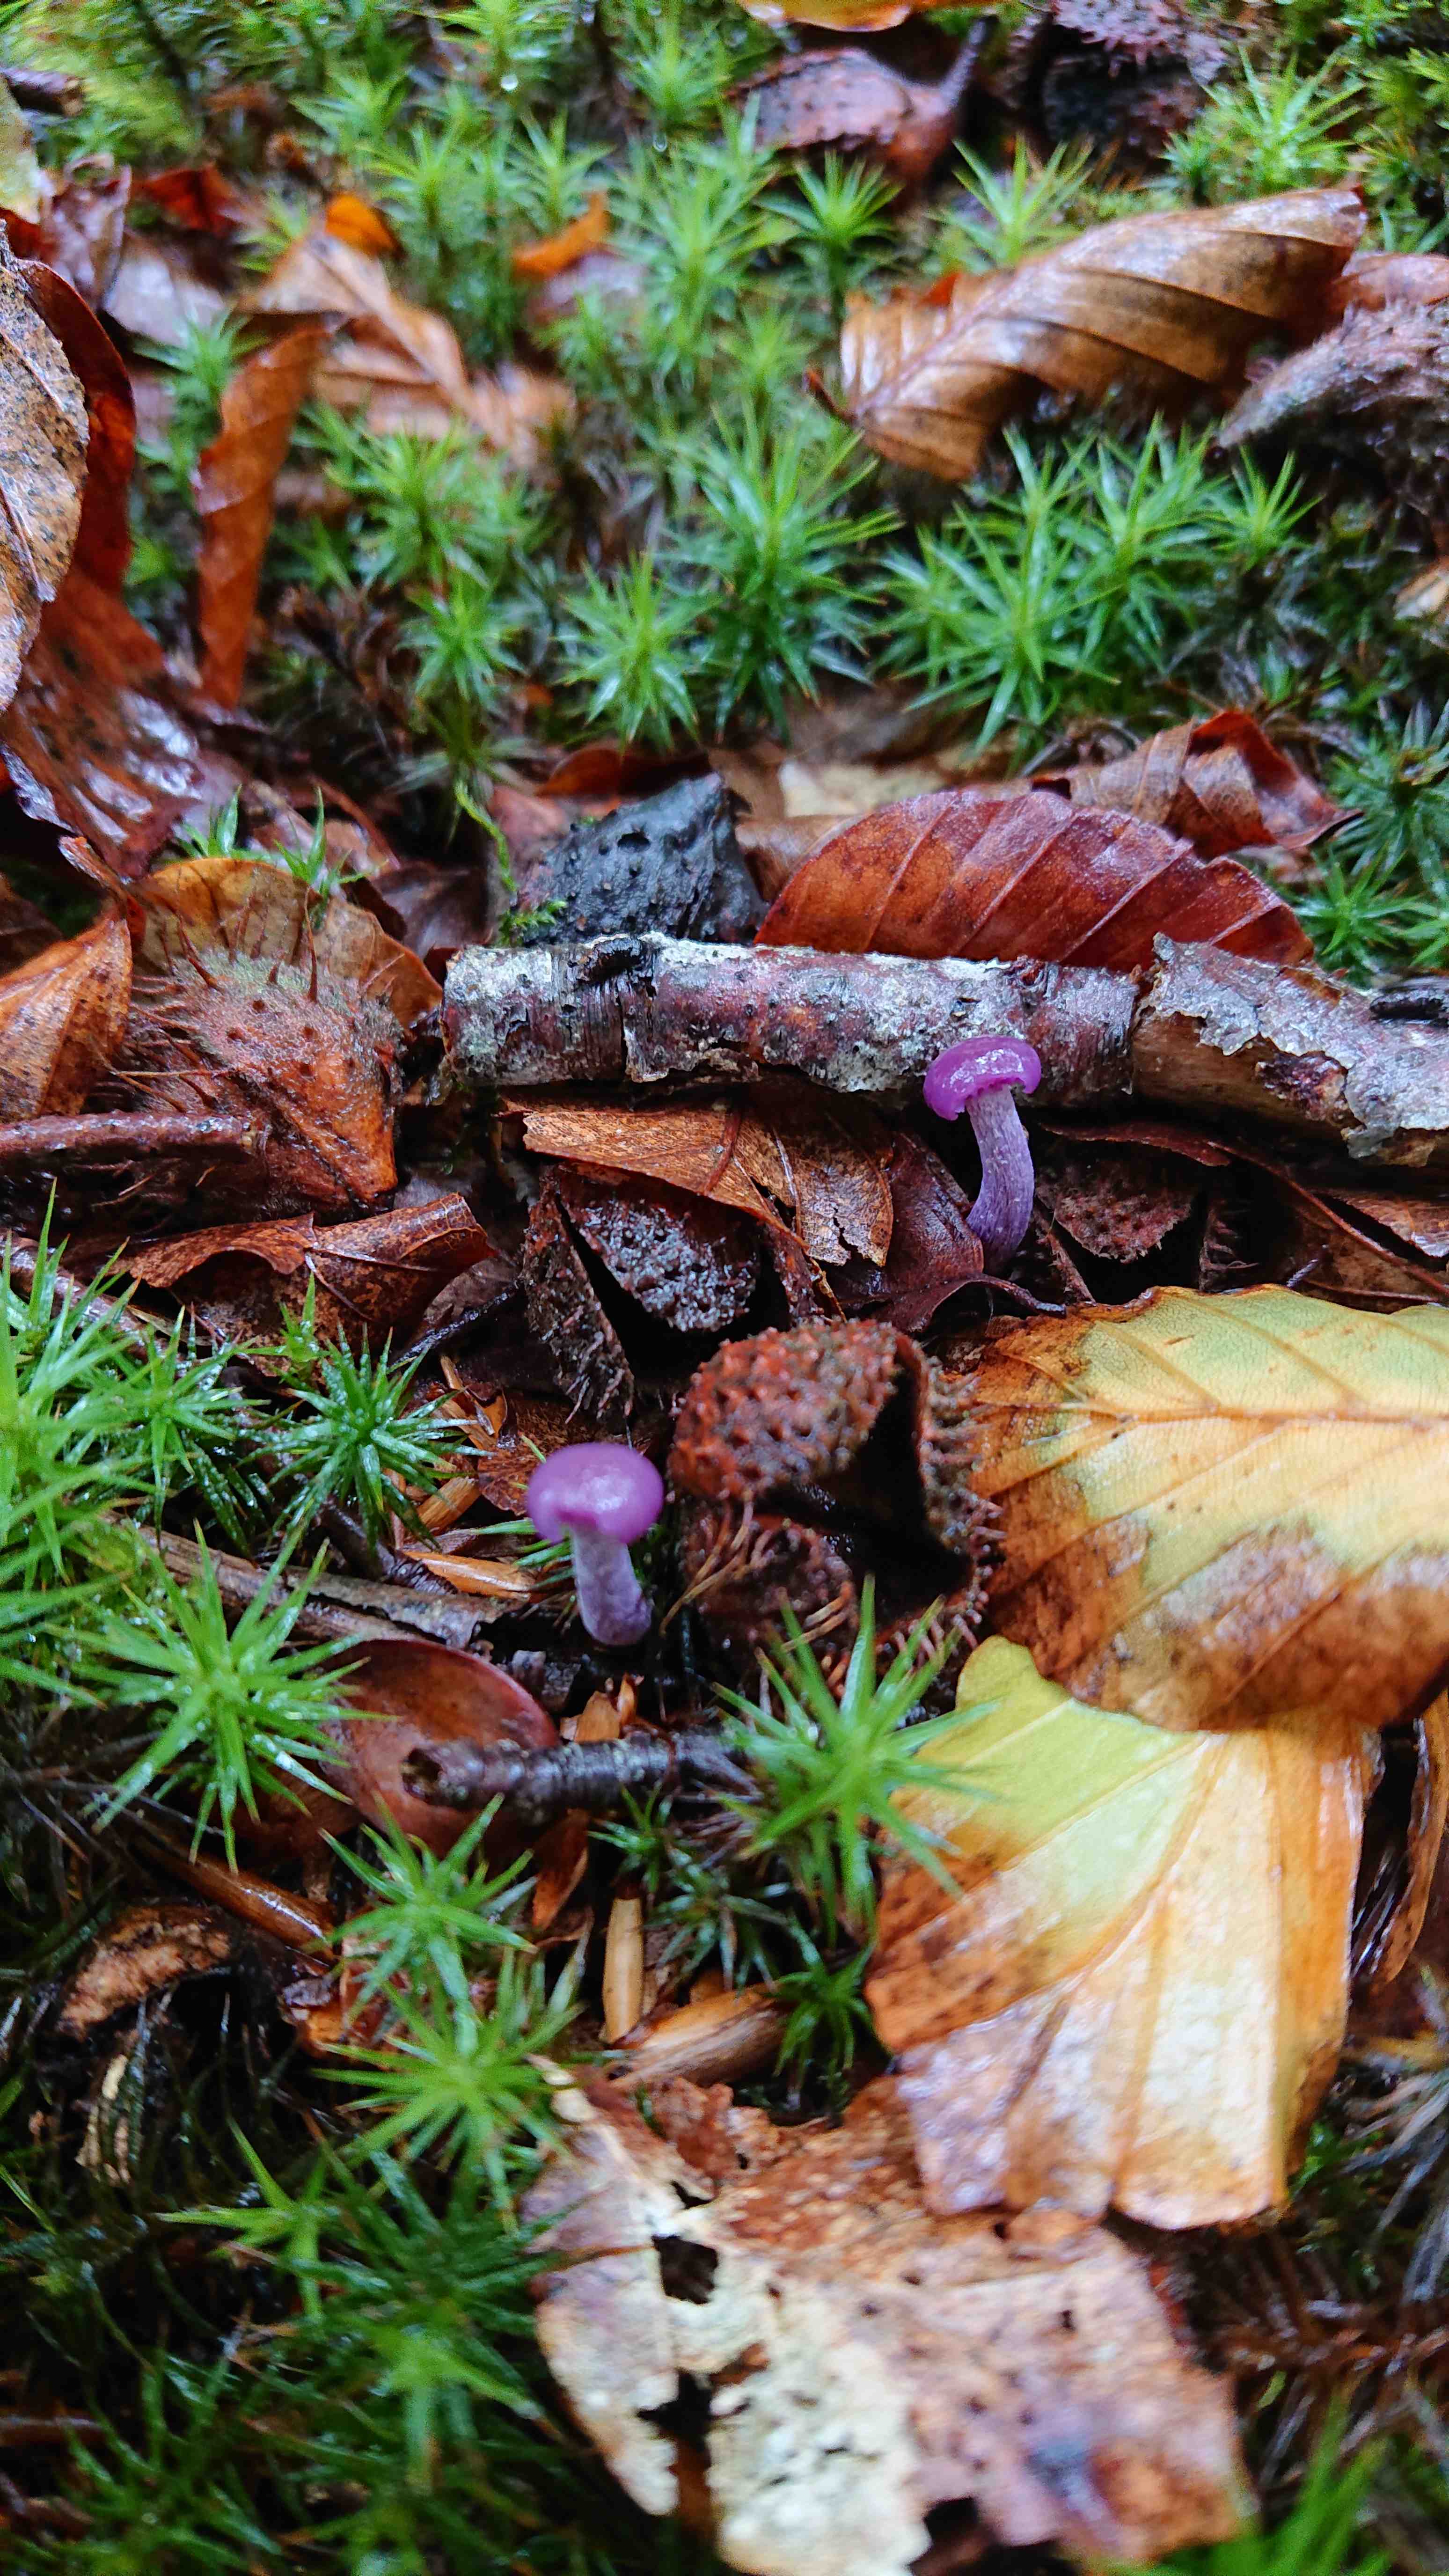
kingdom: Fungi
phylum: Basidiomycota
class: Agaricomycetes
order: Agaricales
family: Hydnangiaceae
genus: Laccaria
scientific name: Laccaria amethystina
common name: violet ametysthat
